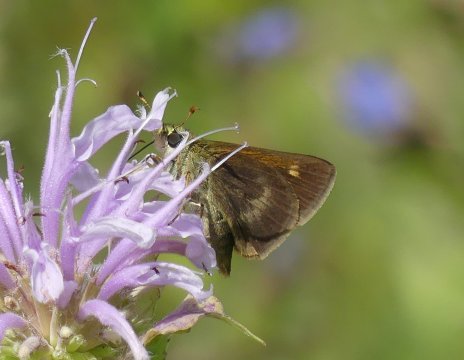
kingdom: Animalia
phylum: Arthropoda
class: Insecta
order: Lepidoptera
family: Hesperiidae
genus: Polites
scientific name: Polites egeremet
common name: Northern Broken-Dash
